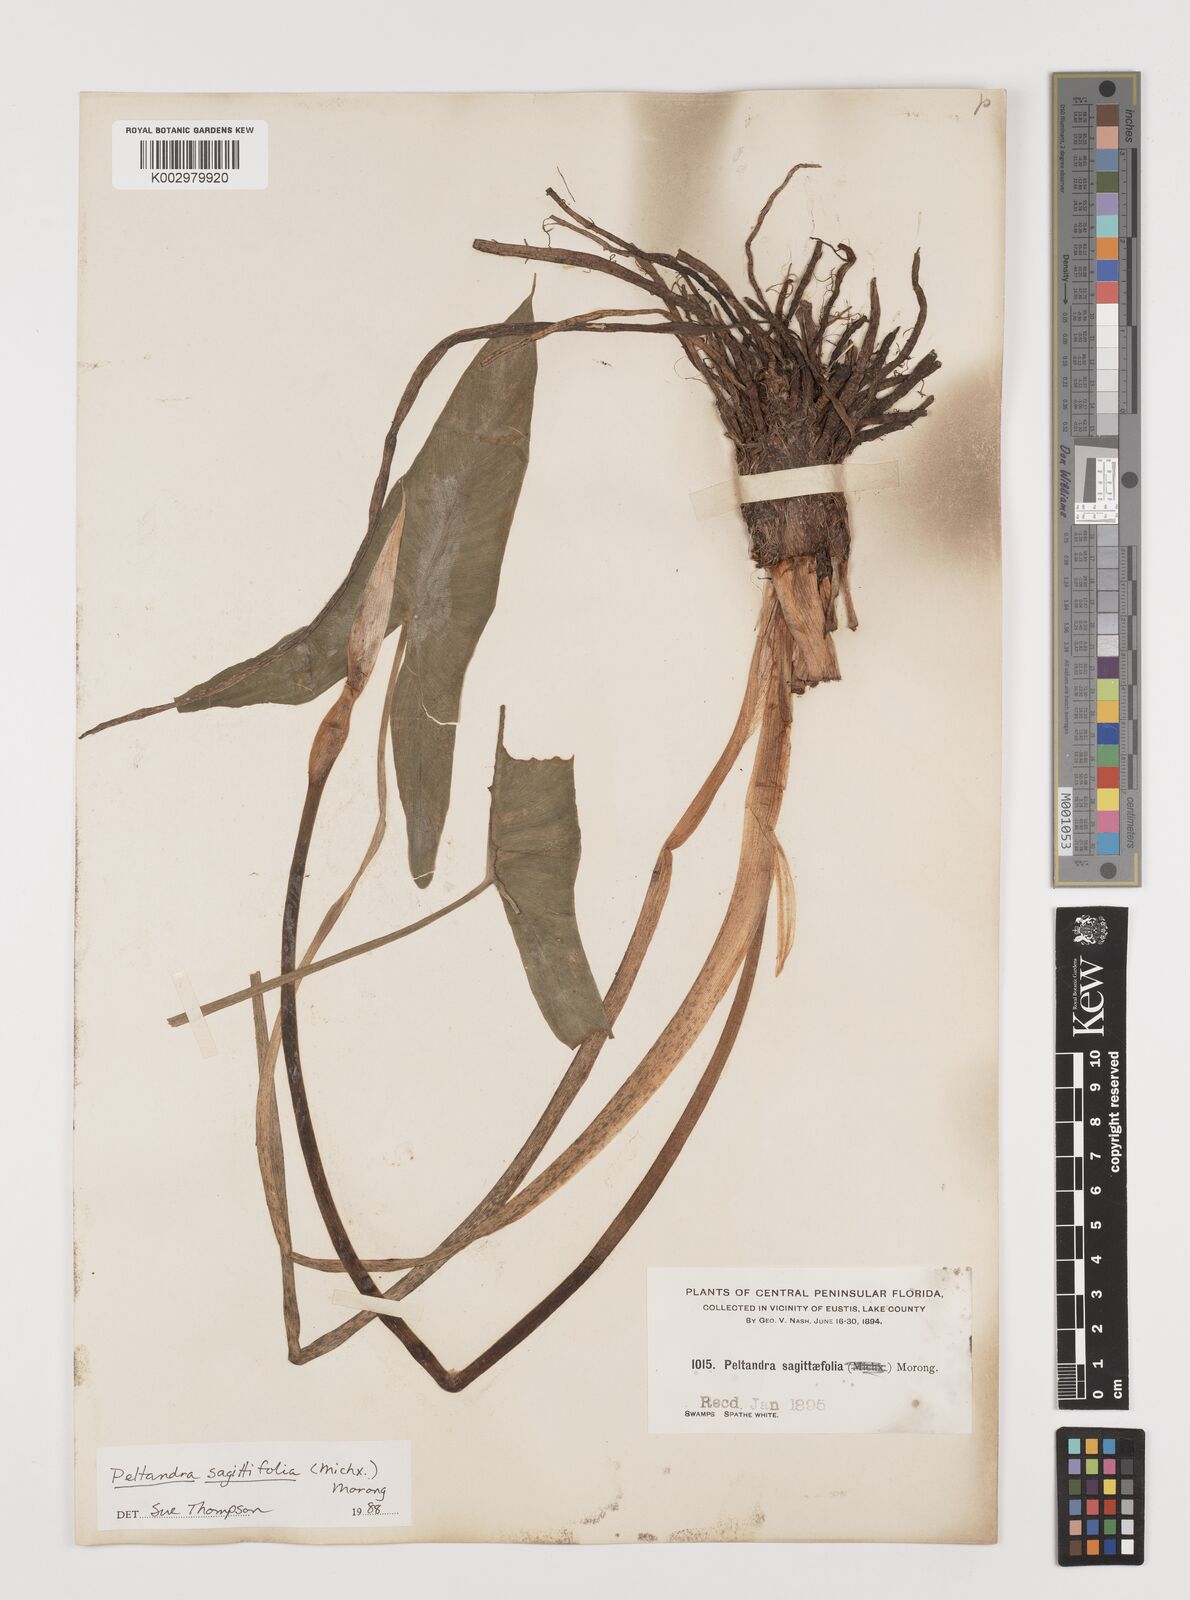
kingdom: Plantae
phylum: Tracheophyta
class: Liliopsida
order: Alismatales
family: Araceae
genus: Peltandra
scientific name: Peltandra sagittifolia
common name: White arrow arum
